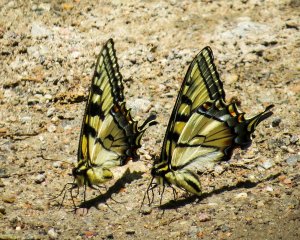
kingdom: Animalia
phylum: Arthropoda
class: Insecta
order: Lepidoptera
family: Papilionidae
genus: Pterourus
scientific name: Pterourus canadensis
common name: Canadian Tiger Swallowtail
